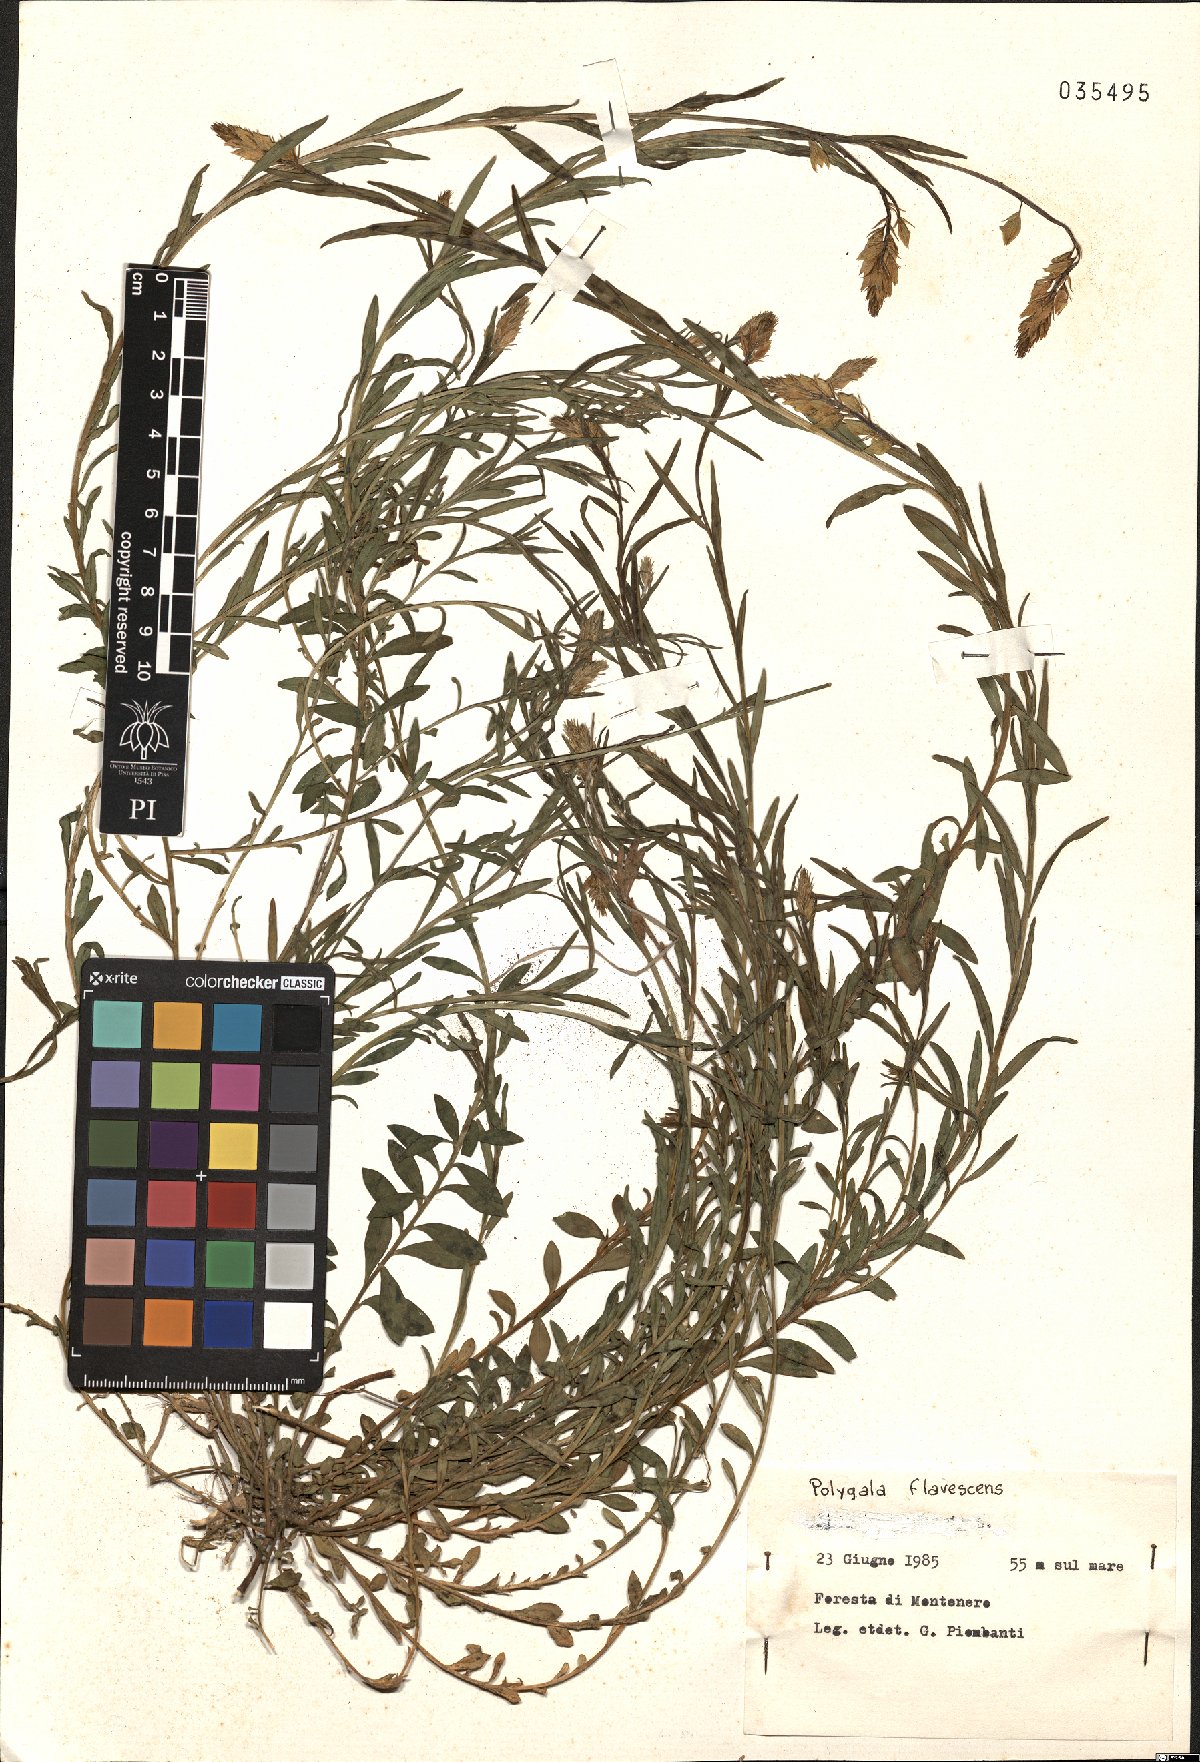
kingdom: Plantae
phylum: Tracheophyta
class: Magnoliopsida
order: Fabales
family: Polygalaceae
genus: Polygala
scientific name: Polygala flavescens
